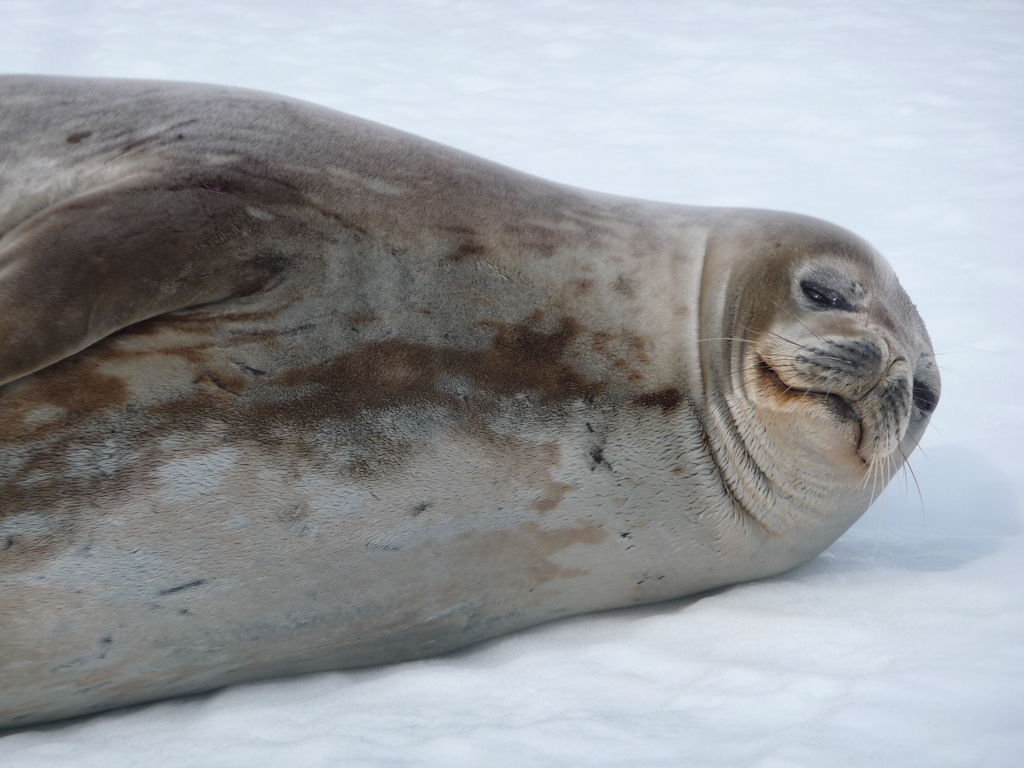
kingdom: Animalia
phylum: Chordata
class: Mammalia
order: Carnivora
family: Phocidae
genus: Leptonychotes
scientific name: Leptonychotes weddellii
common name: Weddell Seal
